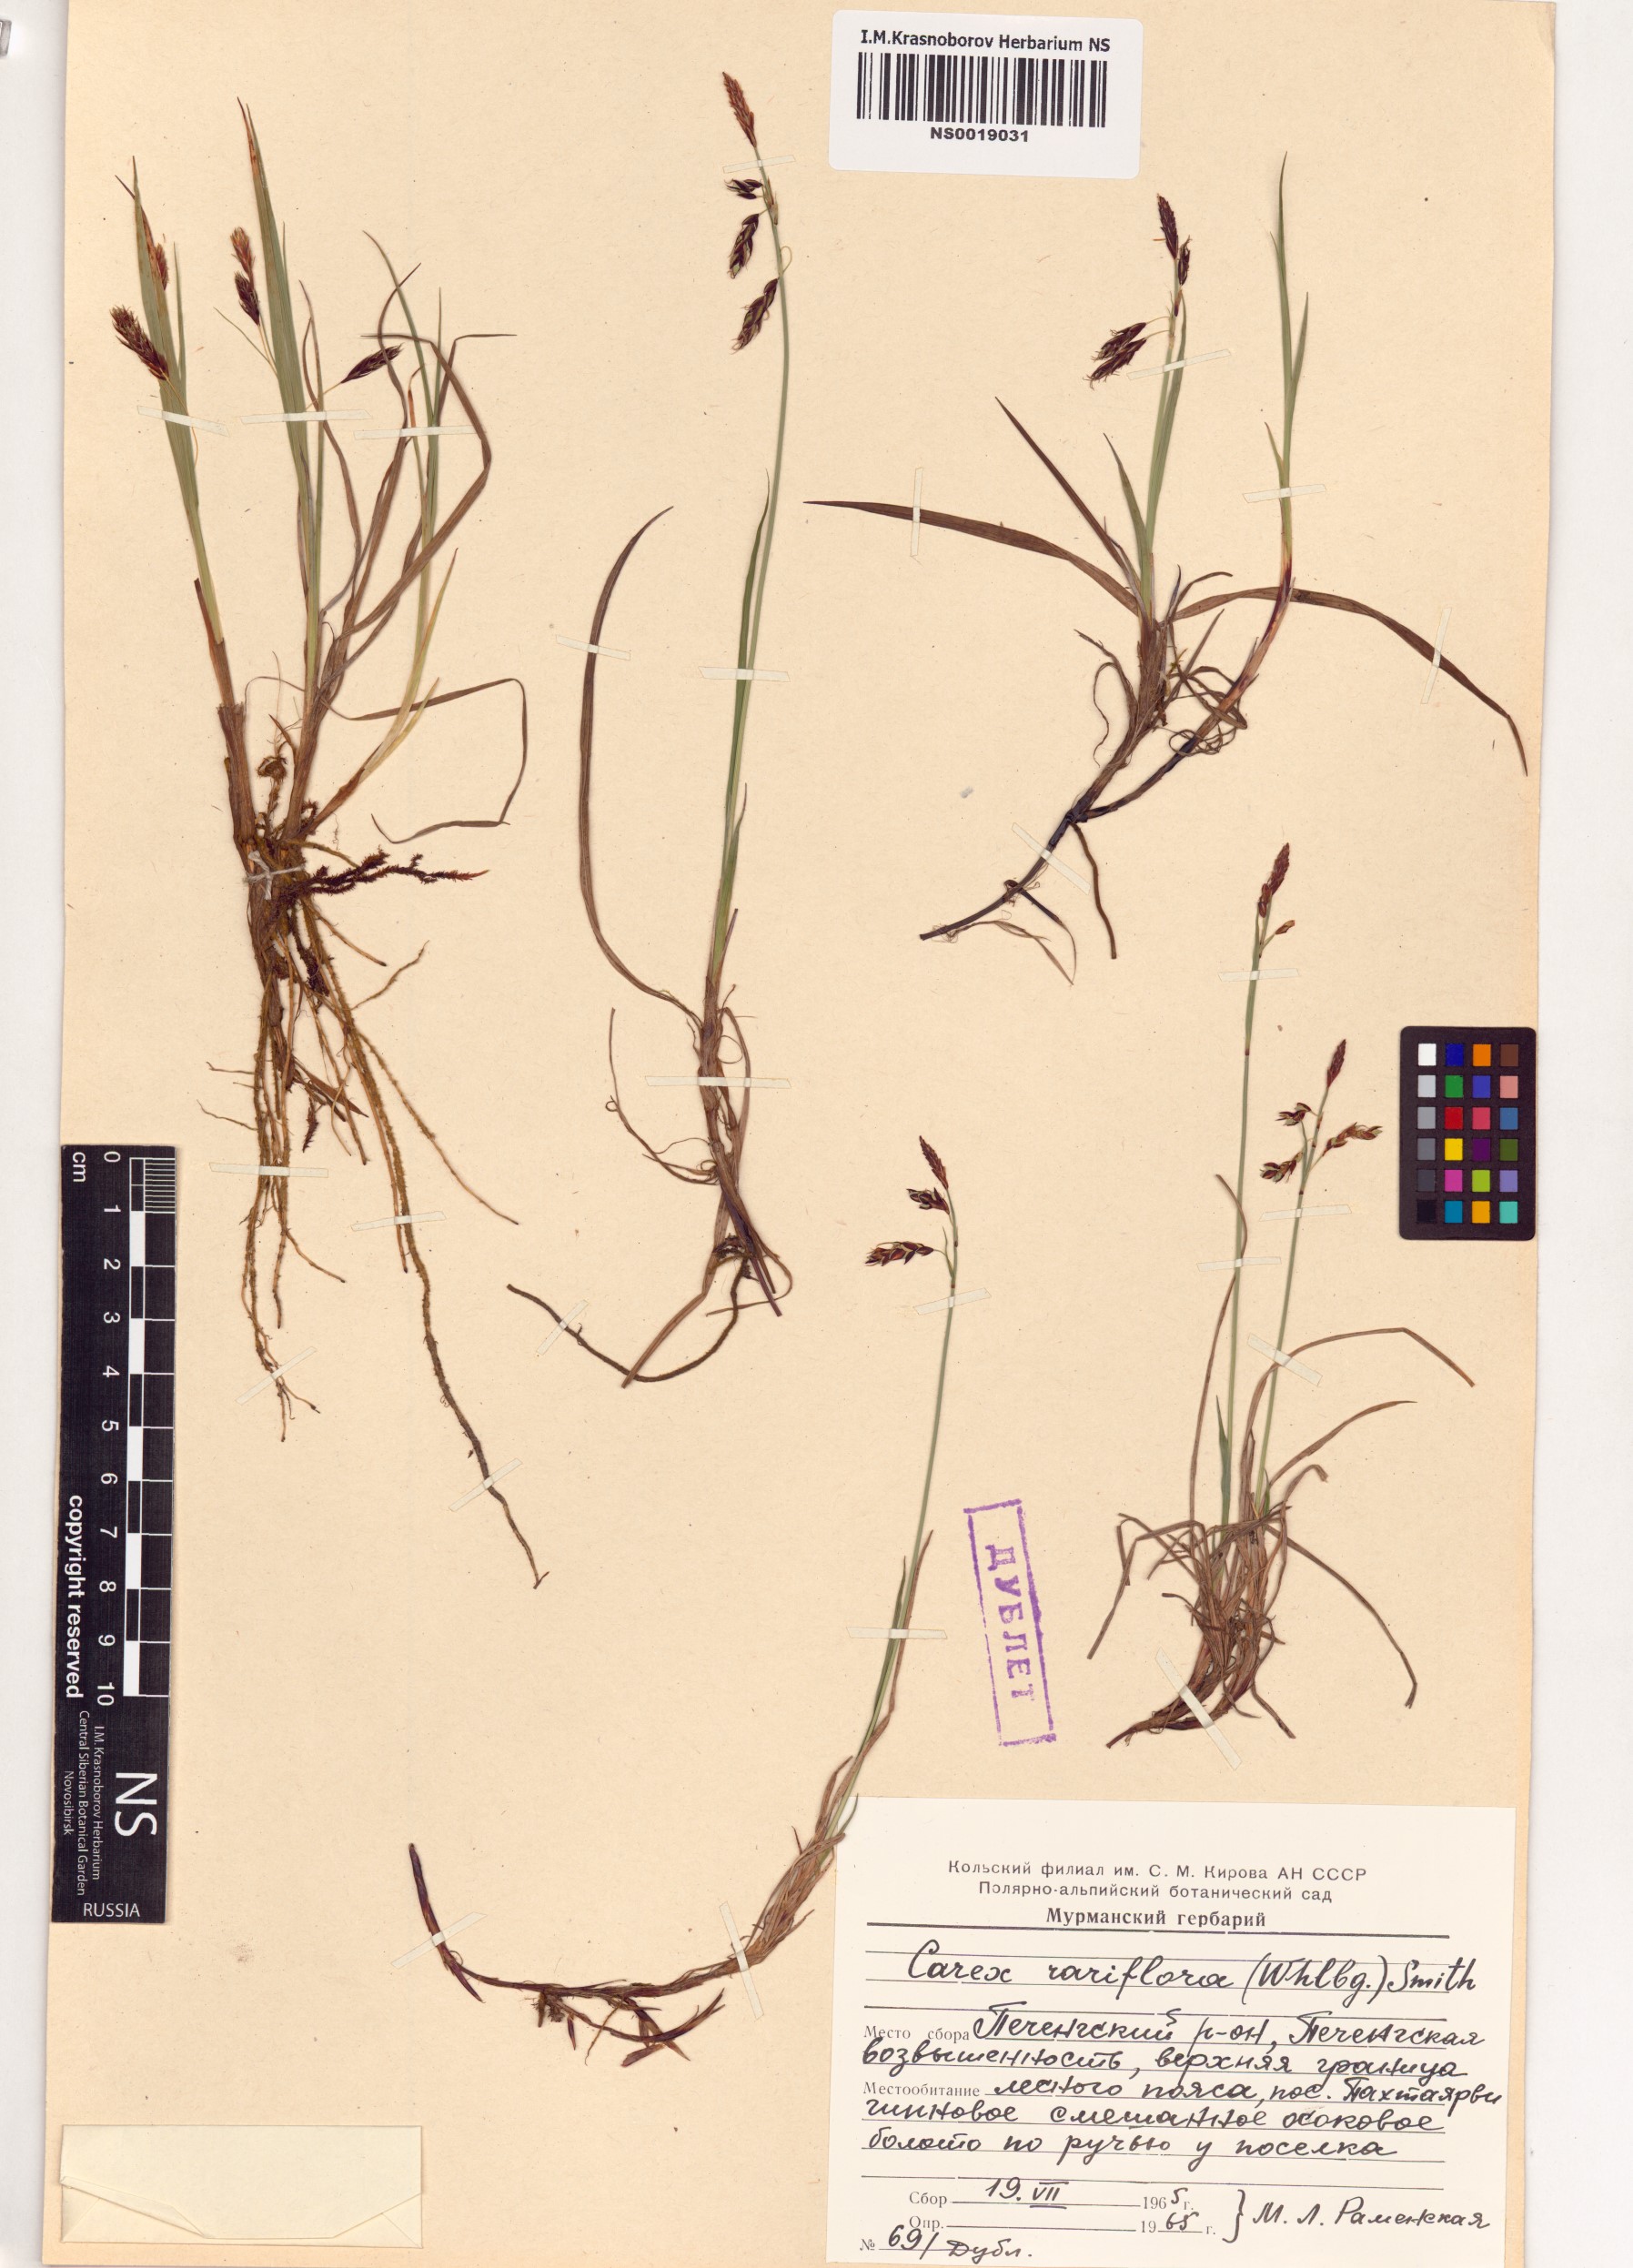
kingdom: Plantae
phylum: Tracheophyta
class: Liliopsida
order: Poales
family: Cyperaceae
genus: Carex
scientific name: Carex rariflora
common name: Loose-flowered alpine sedge
